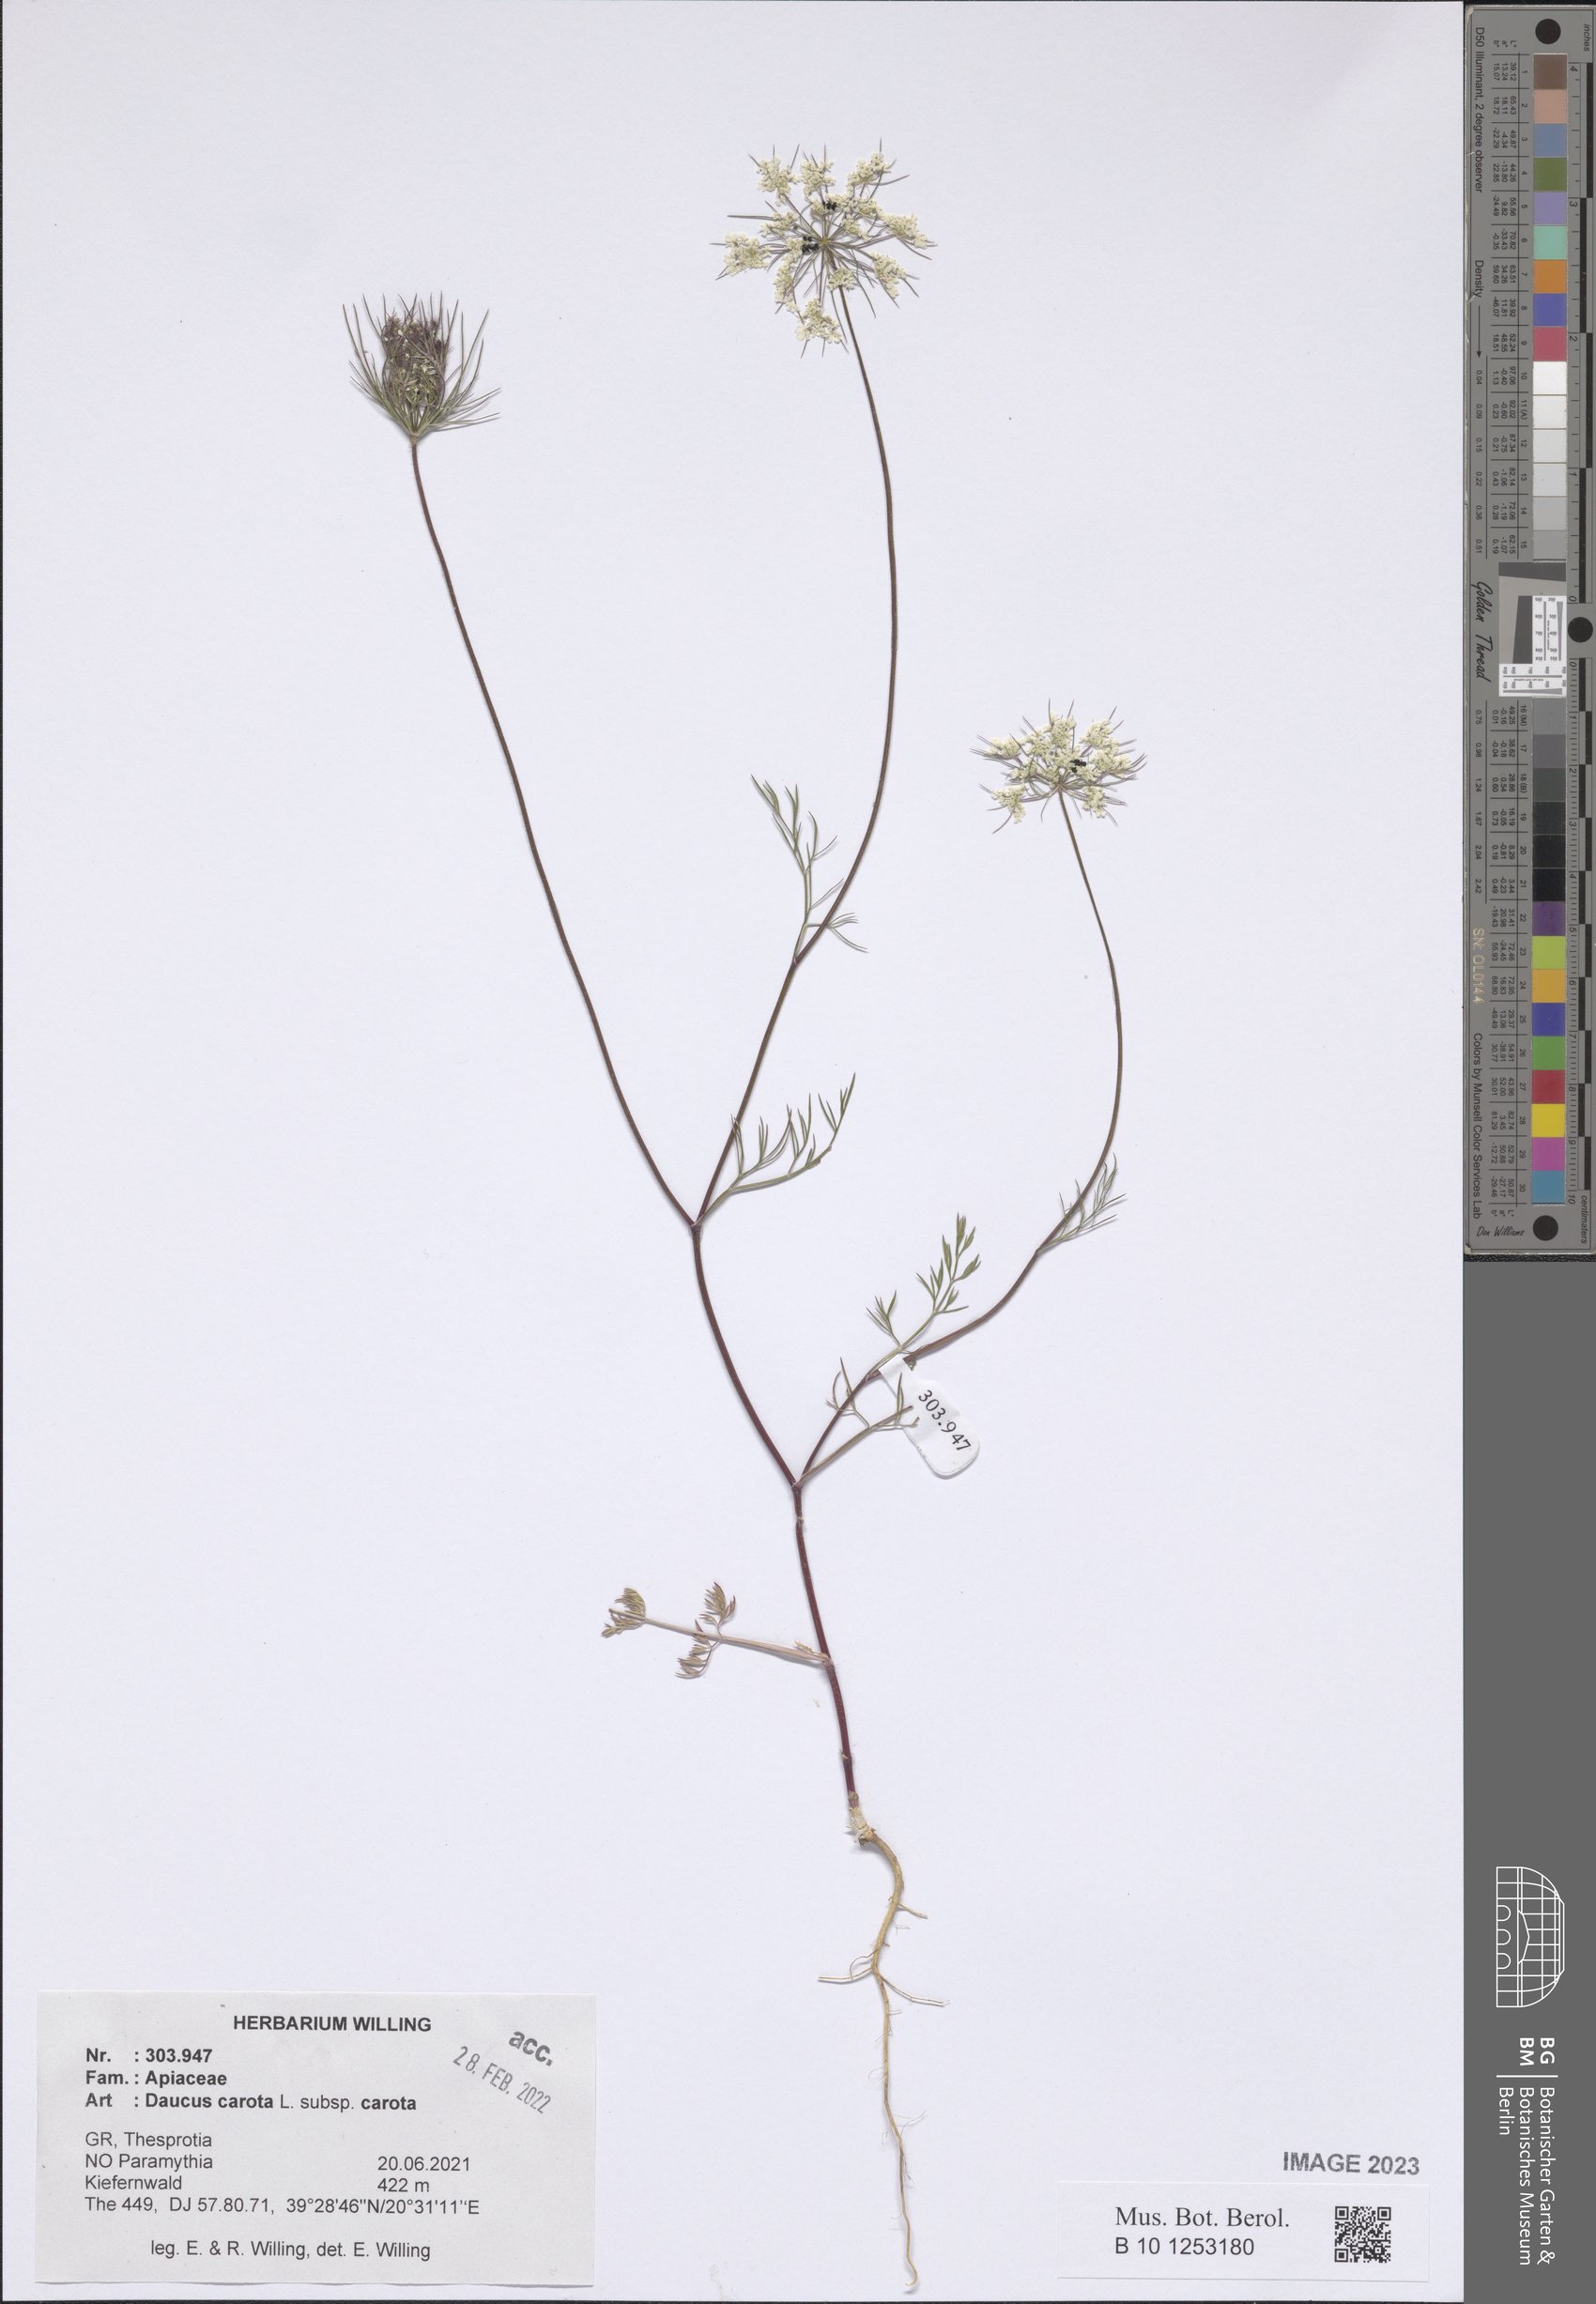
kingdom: Plantae
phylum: Tracheophyta
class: Magnoliopsida
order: Apiales
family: Apiaceae
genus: Daucus
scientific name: Daucus carota
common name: Wild carrot
